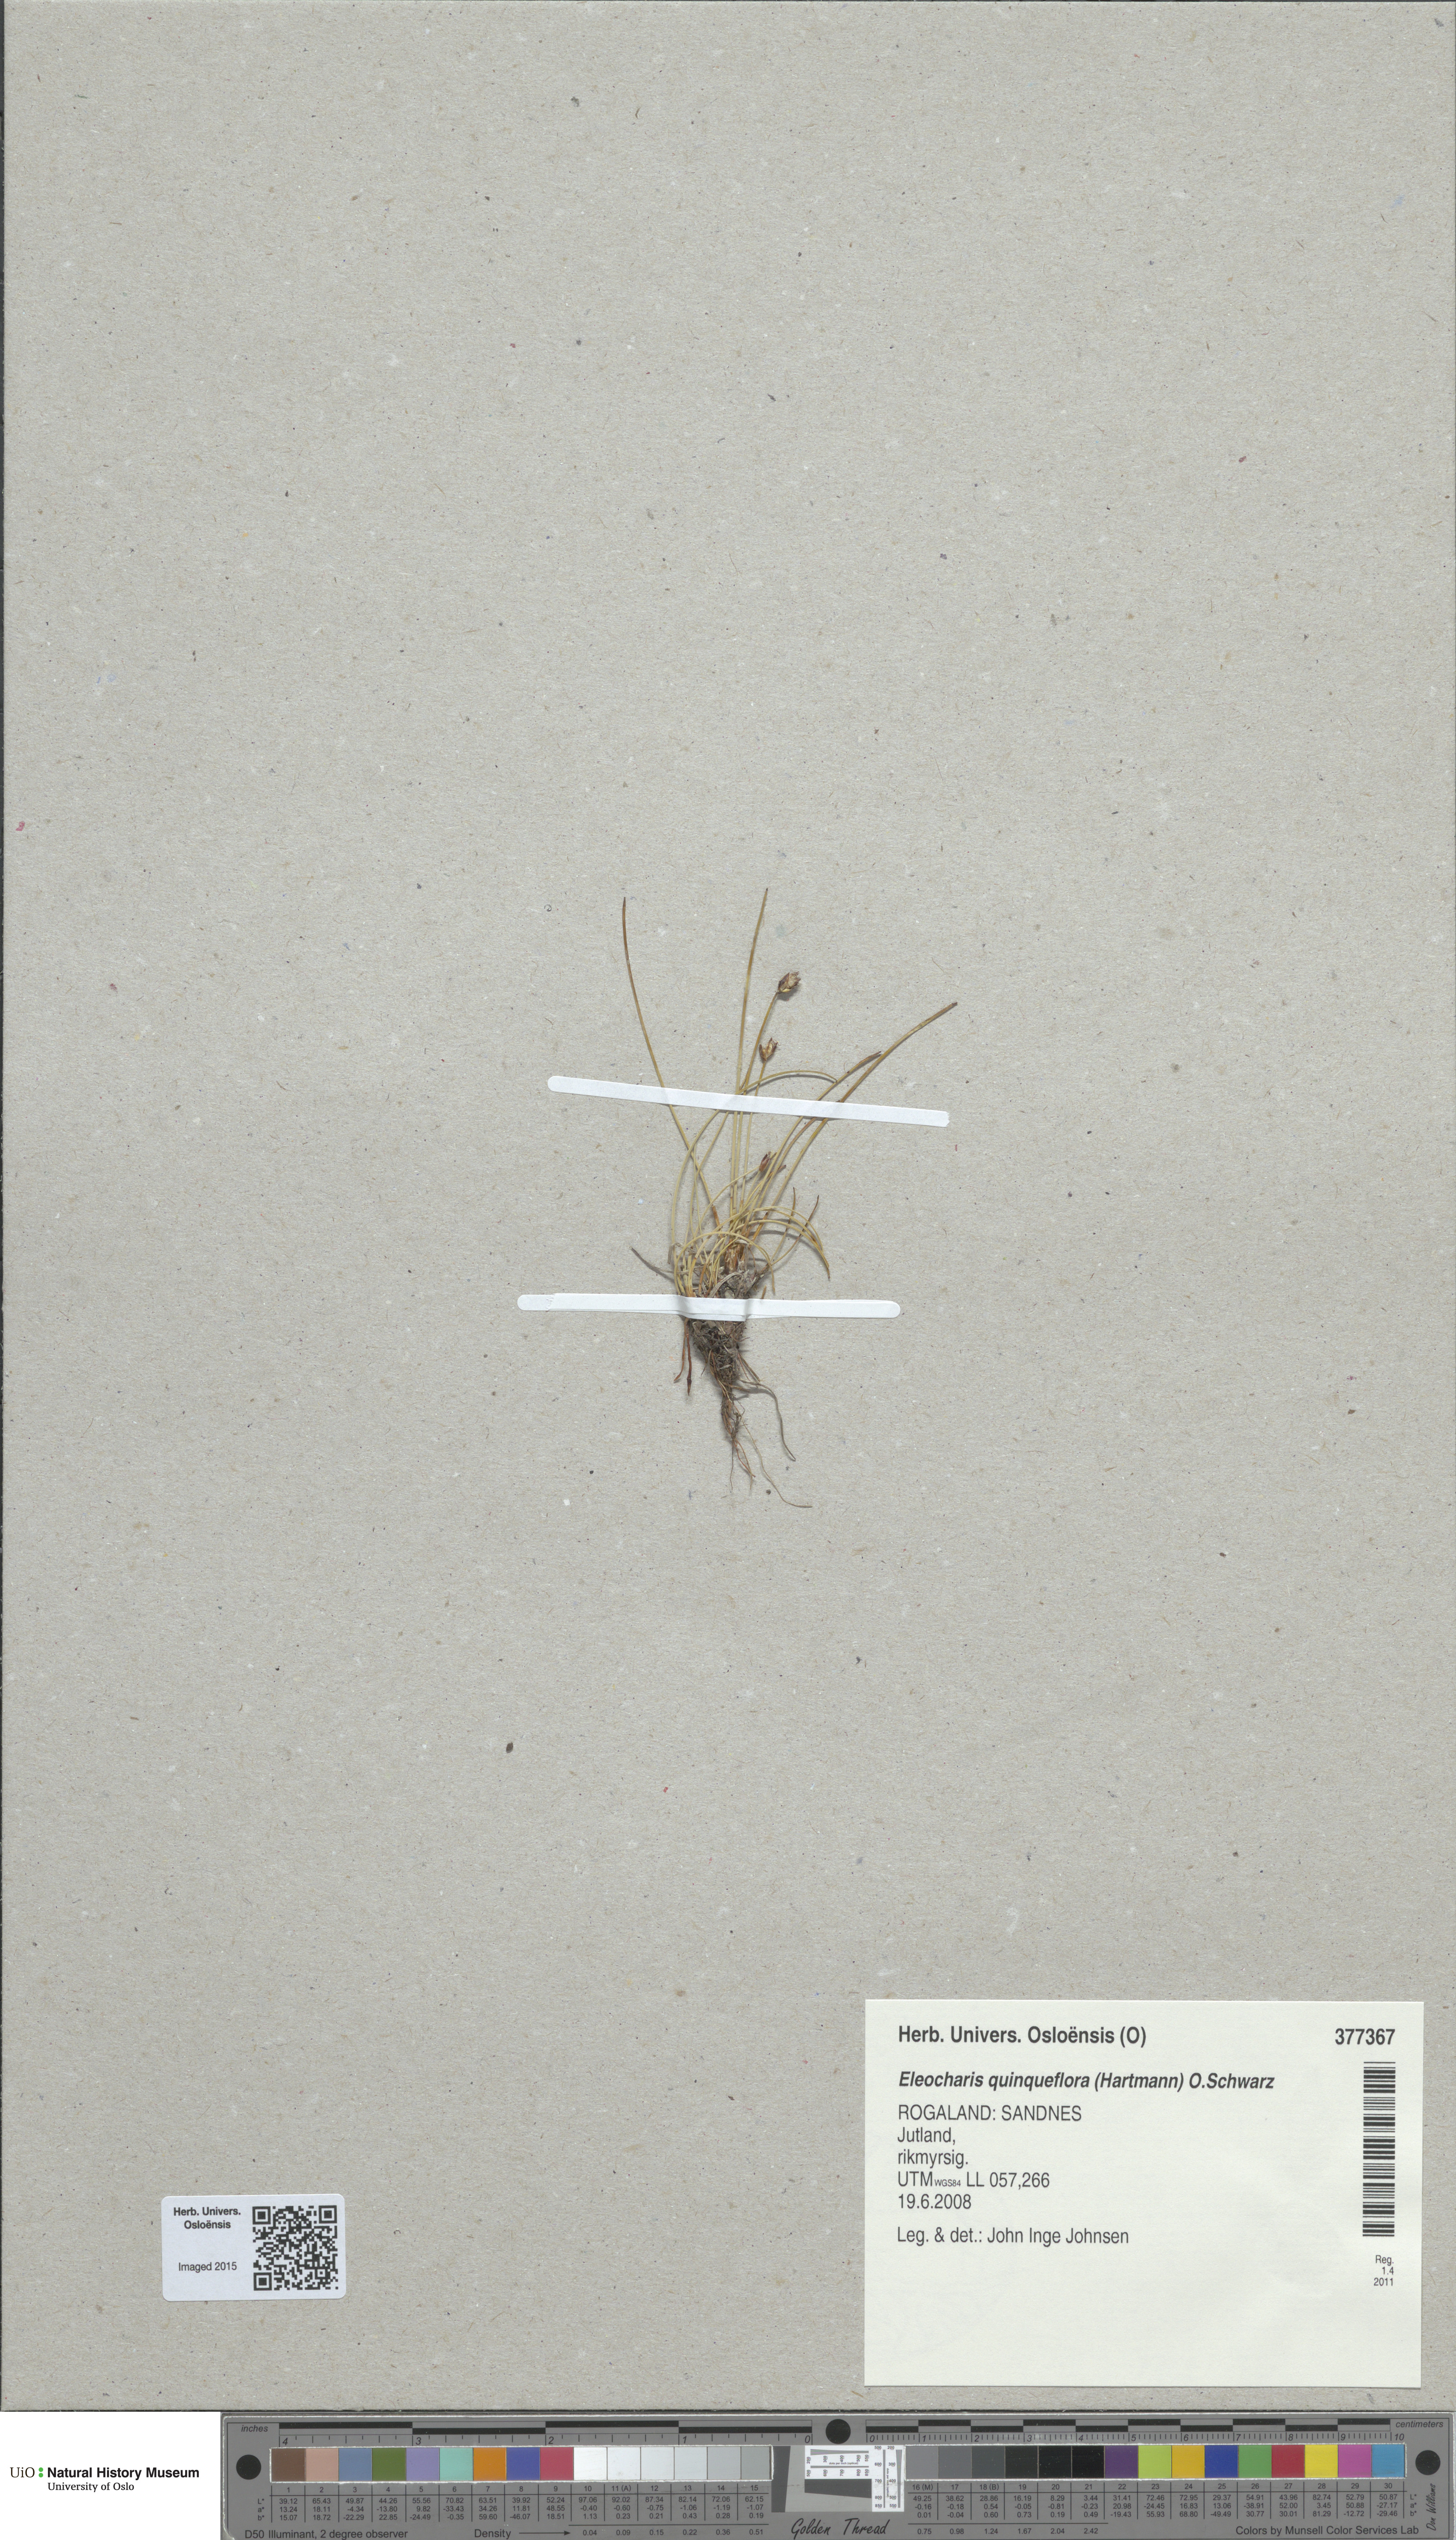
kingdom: Plantae
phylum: Tracheophyta
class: Liliopsida
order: Poales
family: Cyperaceae
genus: Eleocharis
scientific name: Eleocharis quinqueflora
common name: Few-flowered spike-rush
